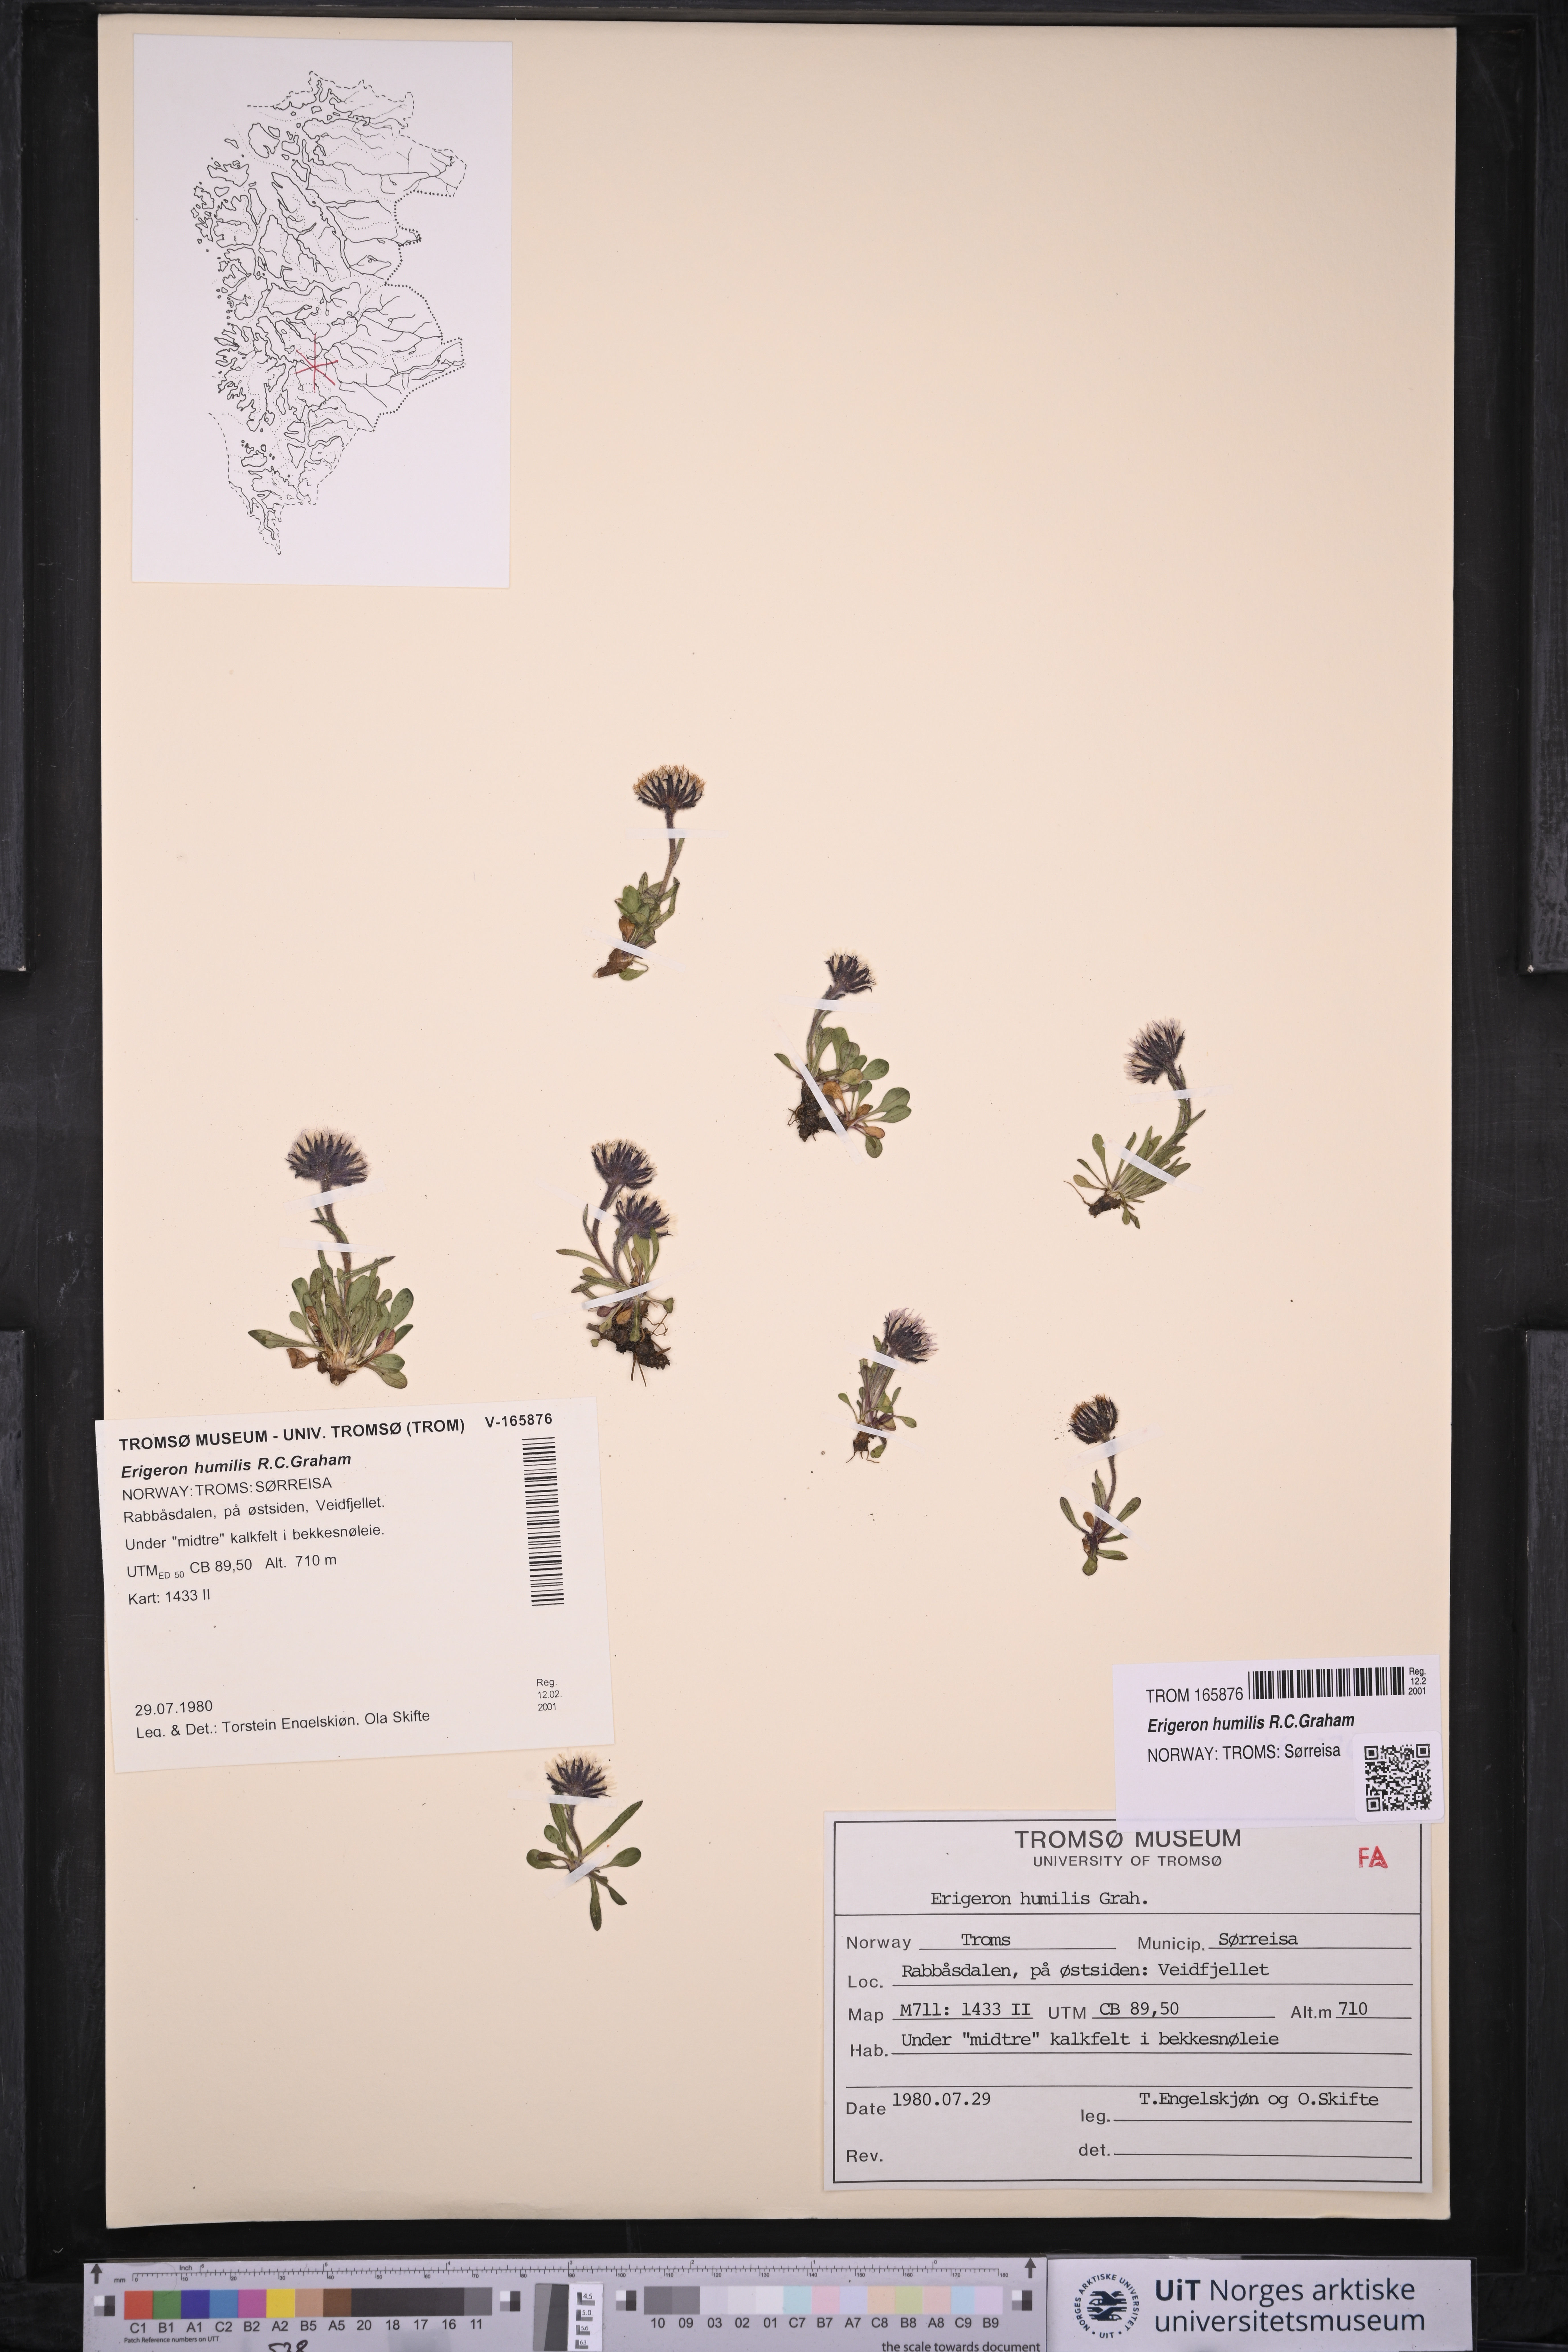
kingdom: Plantae
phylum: Tracheophyta
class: Magnoliopsida
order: Asterales
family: Asteraceae
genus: Erigeron
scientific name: Erigeron humilis
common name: Arctic-alpine fleabane
